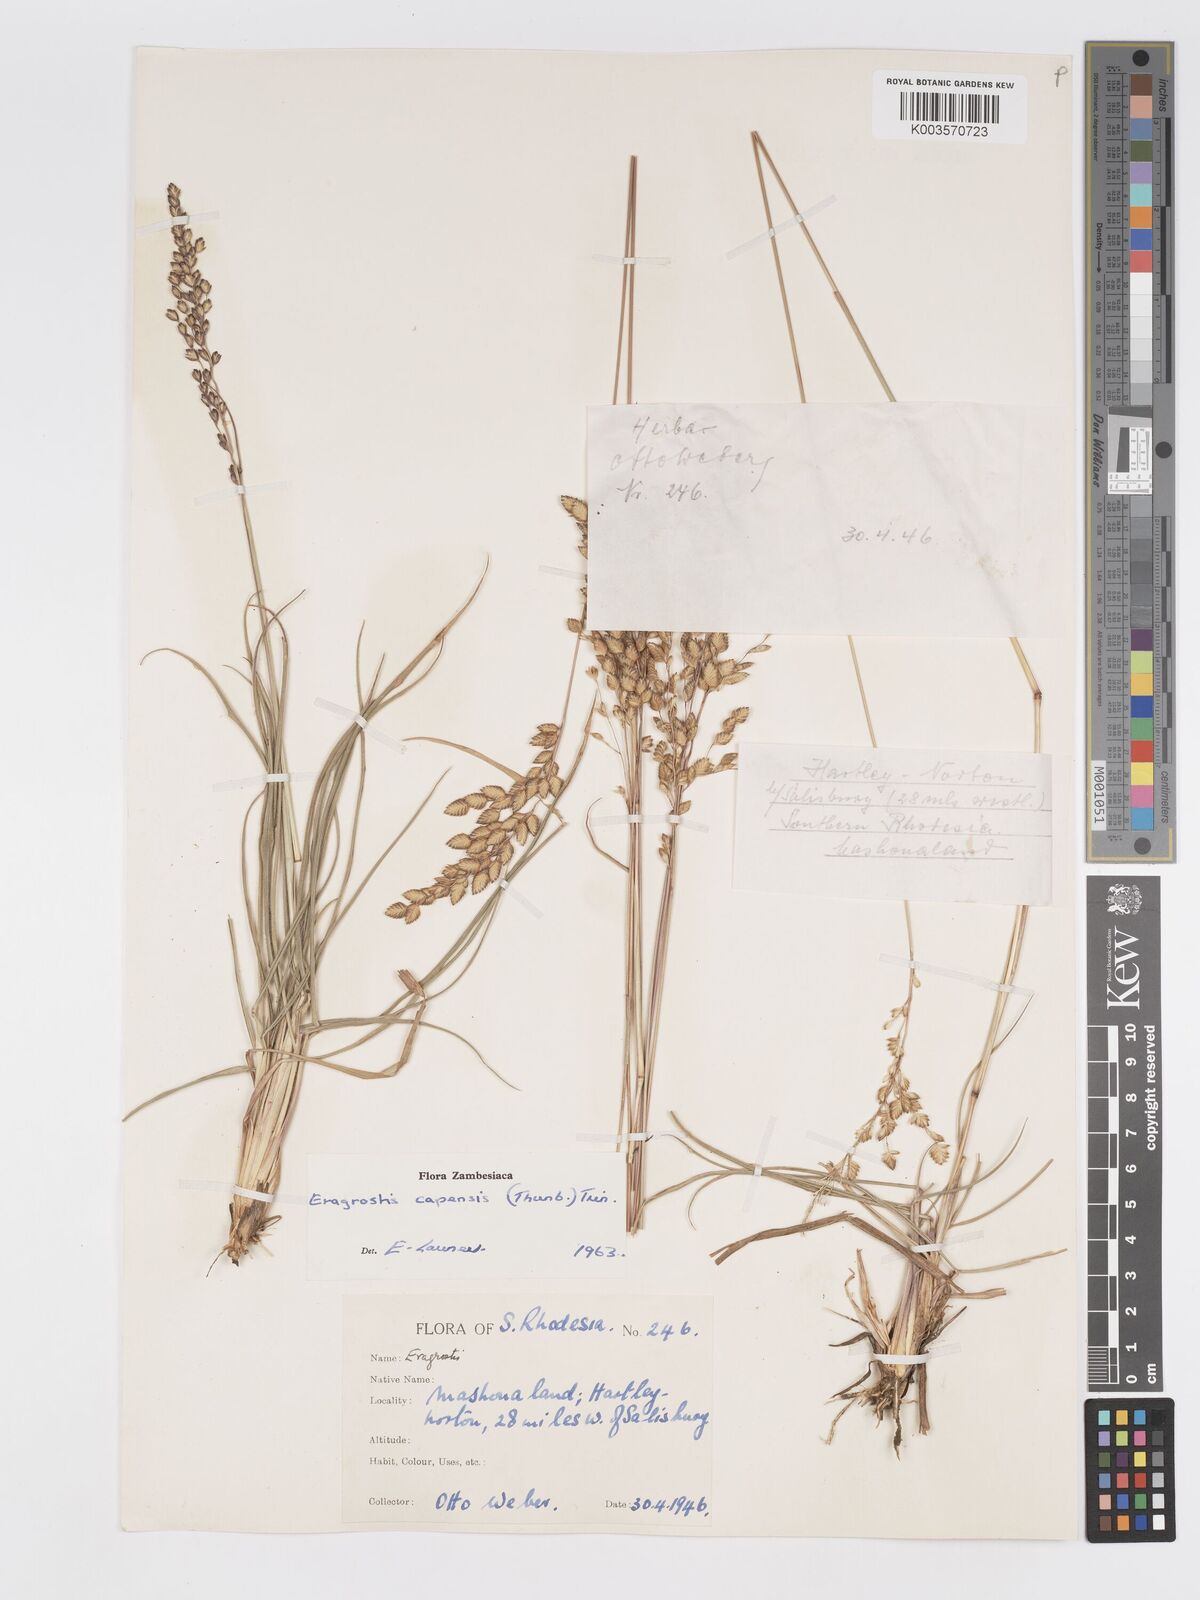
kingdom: Plantae
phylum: Tracheophyta
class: Liliopsida
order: Poales
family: Poaceae
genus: Eragrostis
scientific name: Eragrostis capensis
